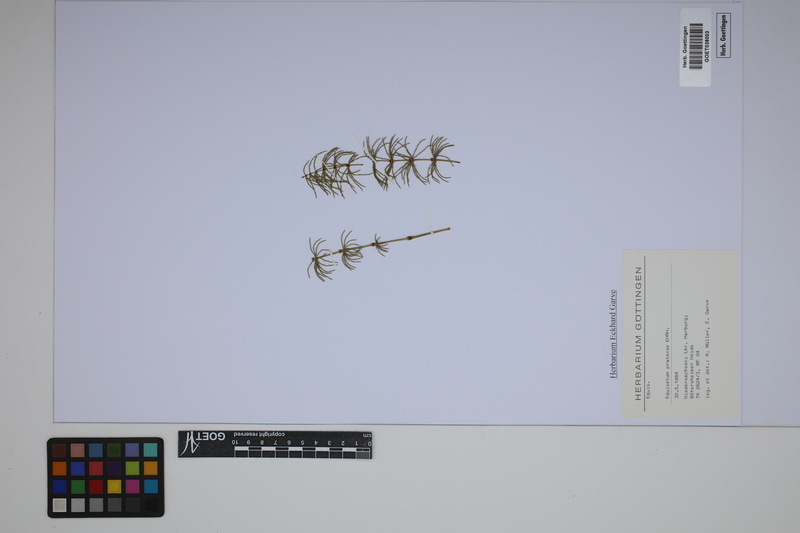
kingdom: Plantae
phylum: Tracheophyta
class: Polypodiopsida
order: Equisetales
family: Equisetaceae
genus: Equisetum
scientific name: Equisetum pratense
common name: Meadow horsetail
